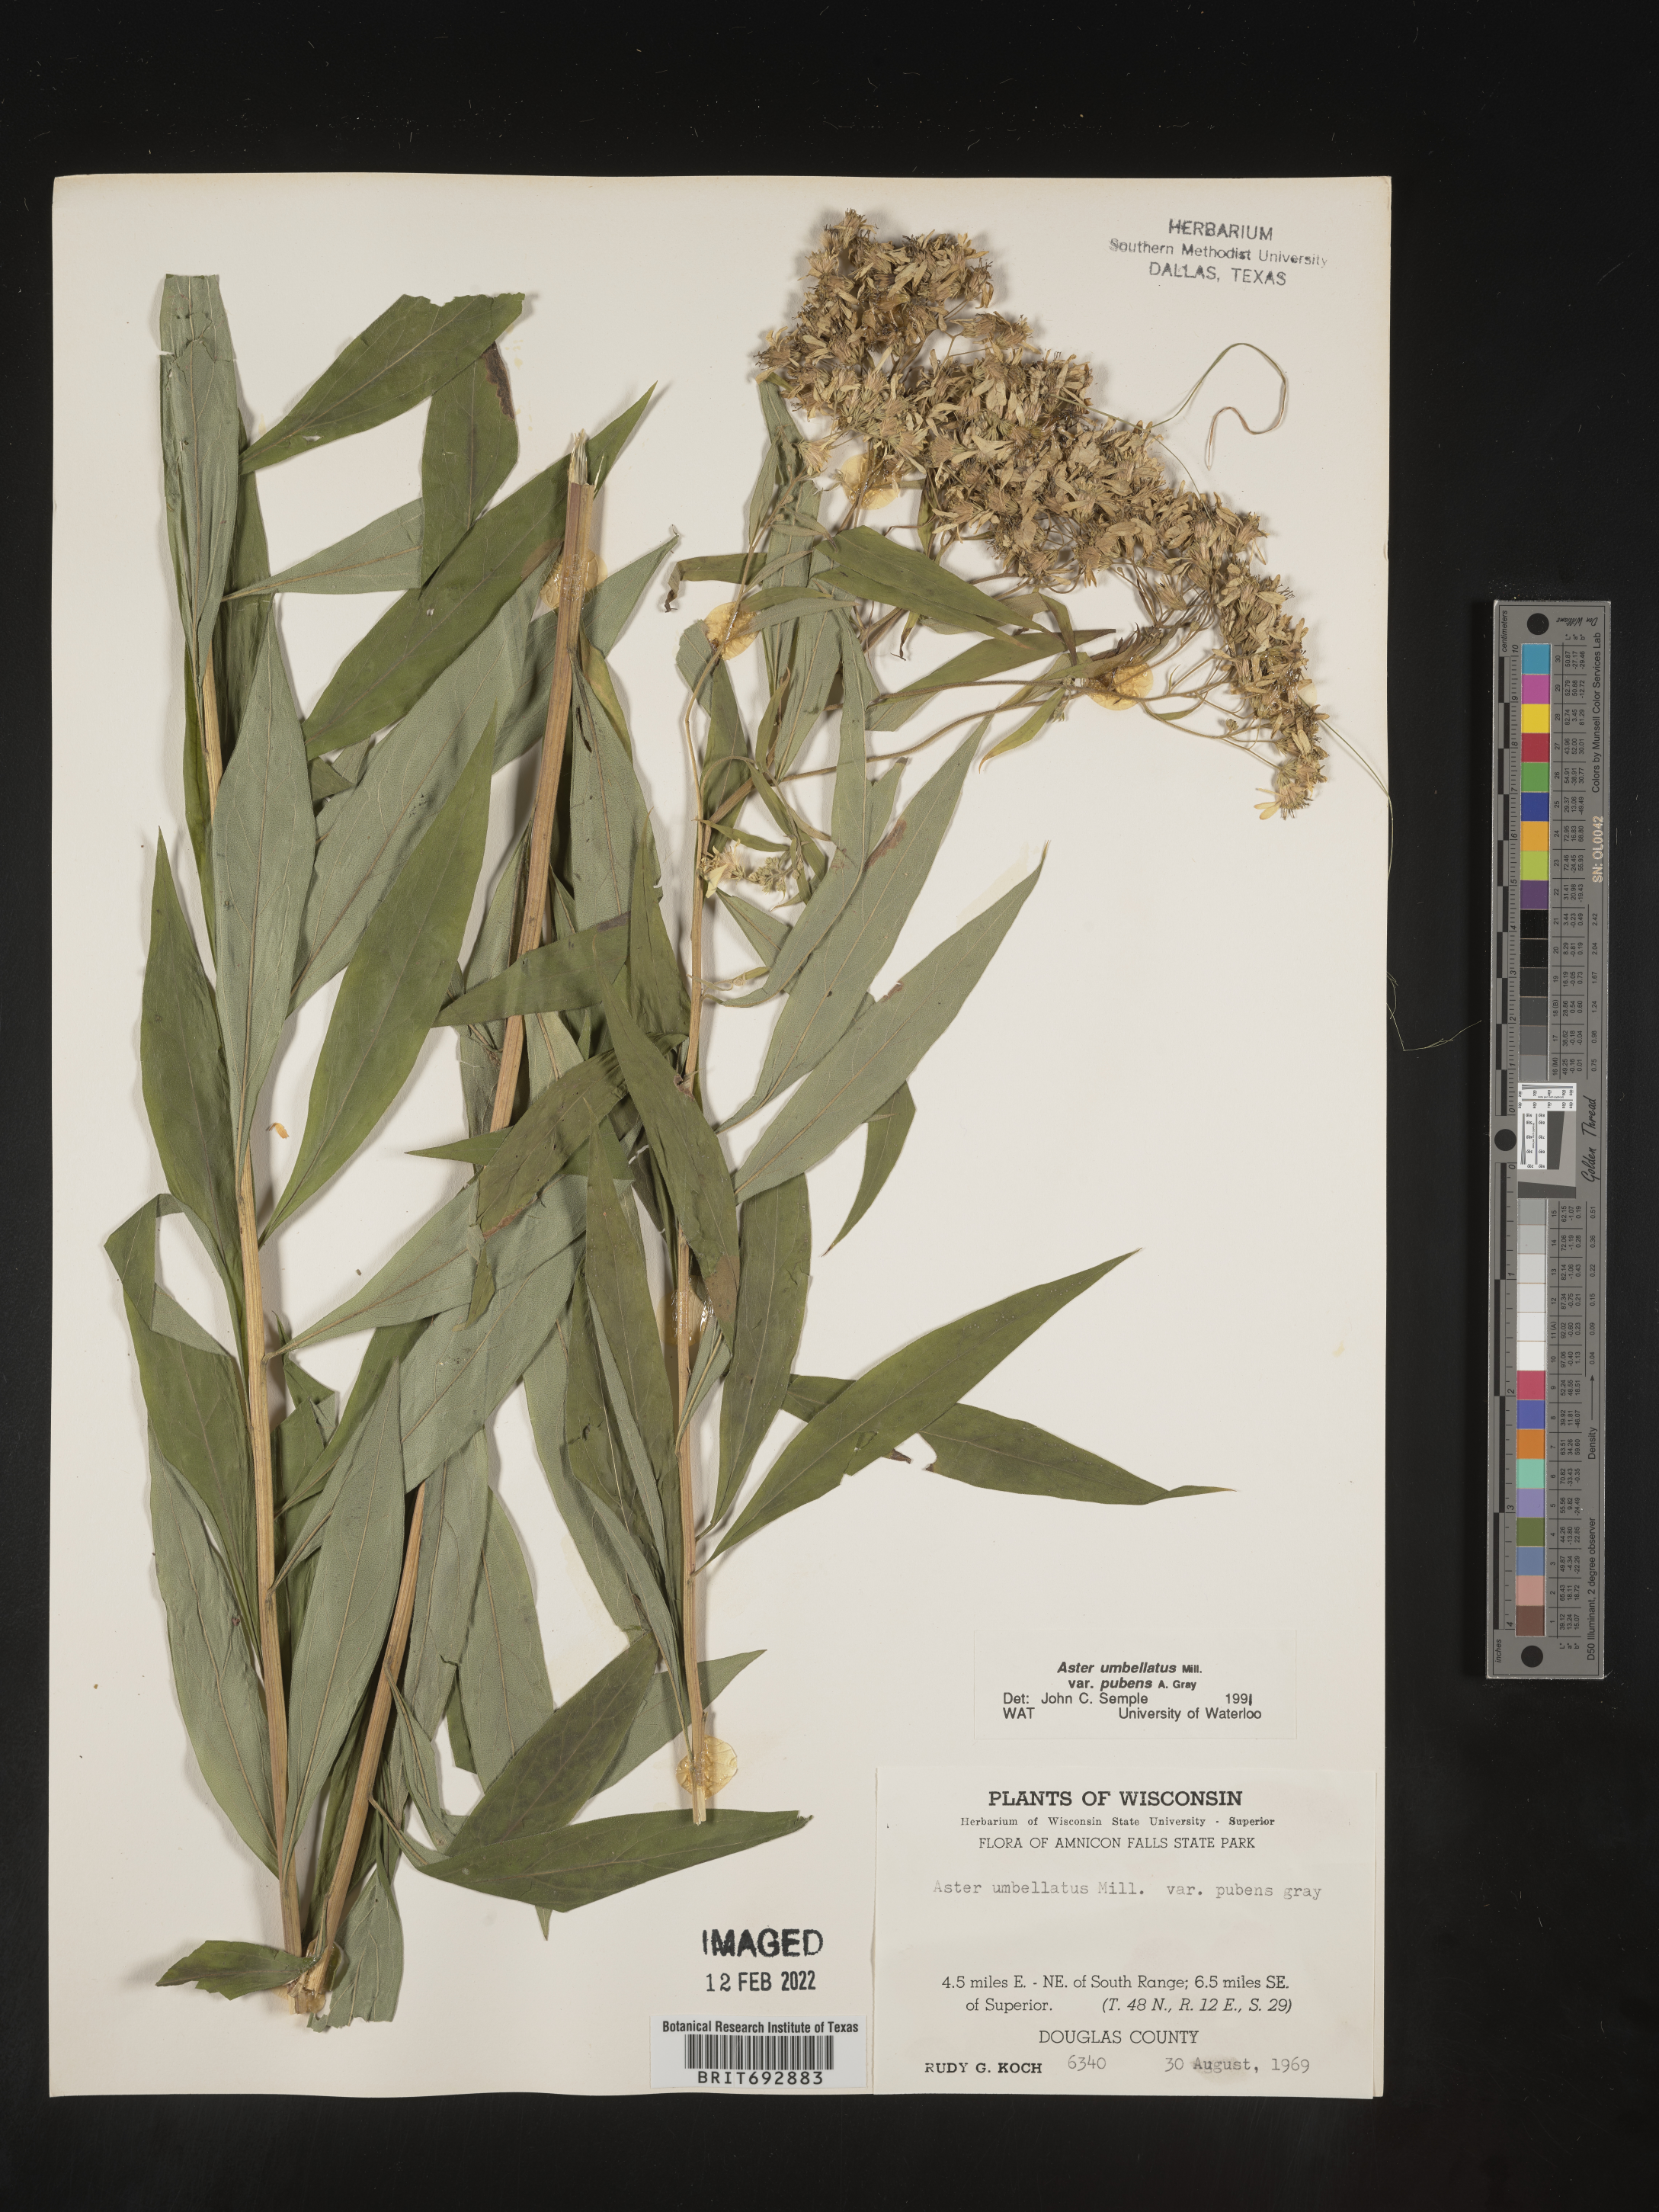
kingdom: Plantae
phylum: Tracheophyta
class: Magnoliopsida
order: Asterales
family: Asteraceae
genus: Doellingeria
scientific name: Doellingeria umbellata
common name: Flat-top white aster
